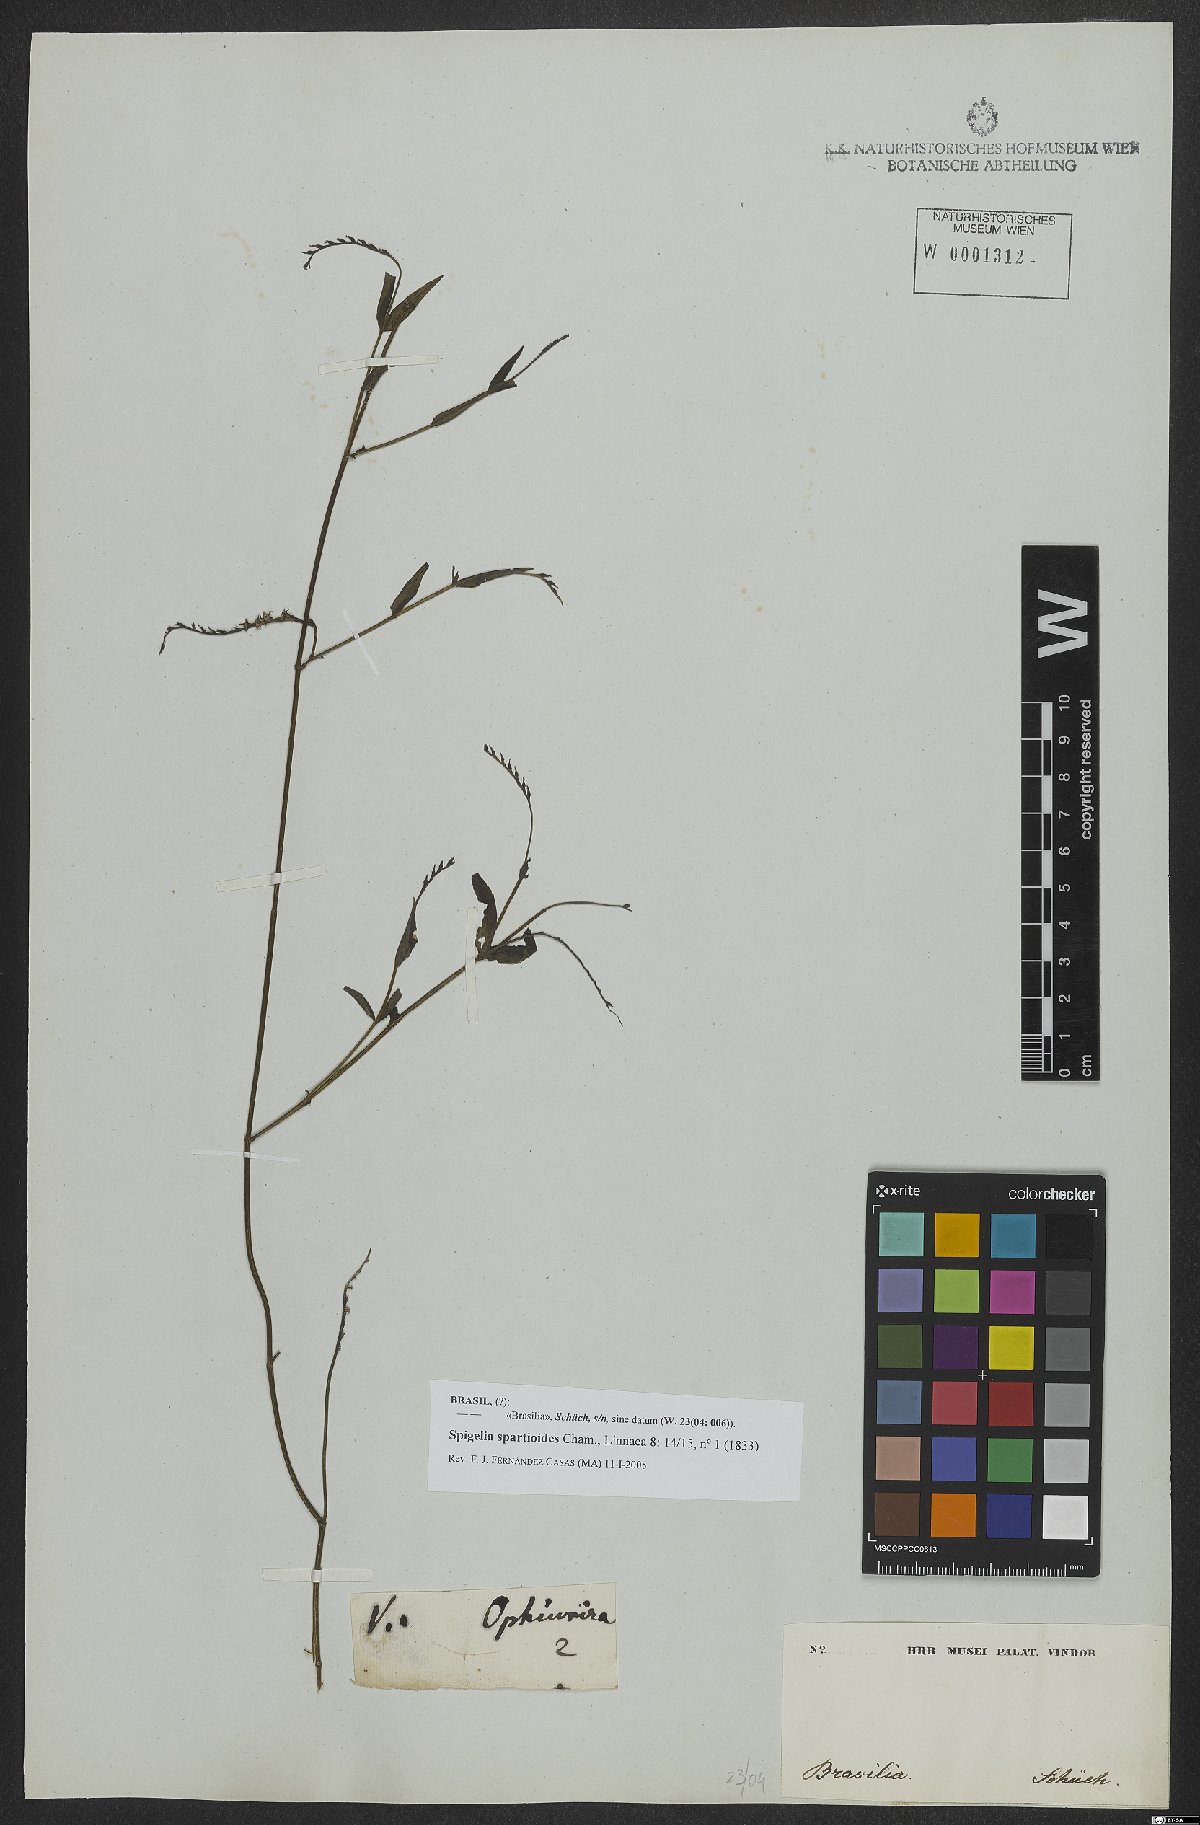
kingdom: Plantae
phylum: Tracheophyta
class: Magnoliopsida
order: Gentianales
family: Loganiaceae
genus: Spigelia
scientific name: Spigelia spartioides
